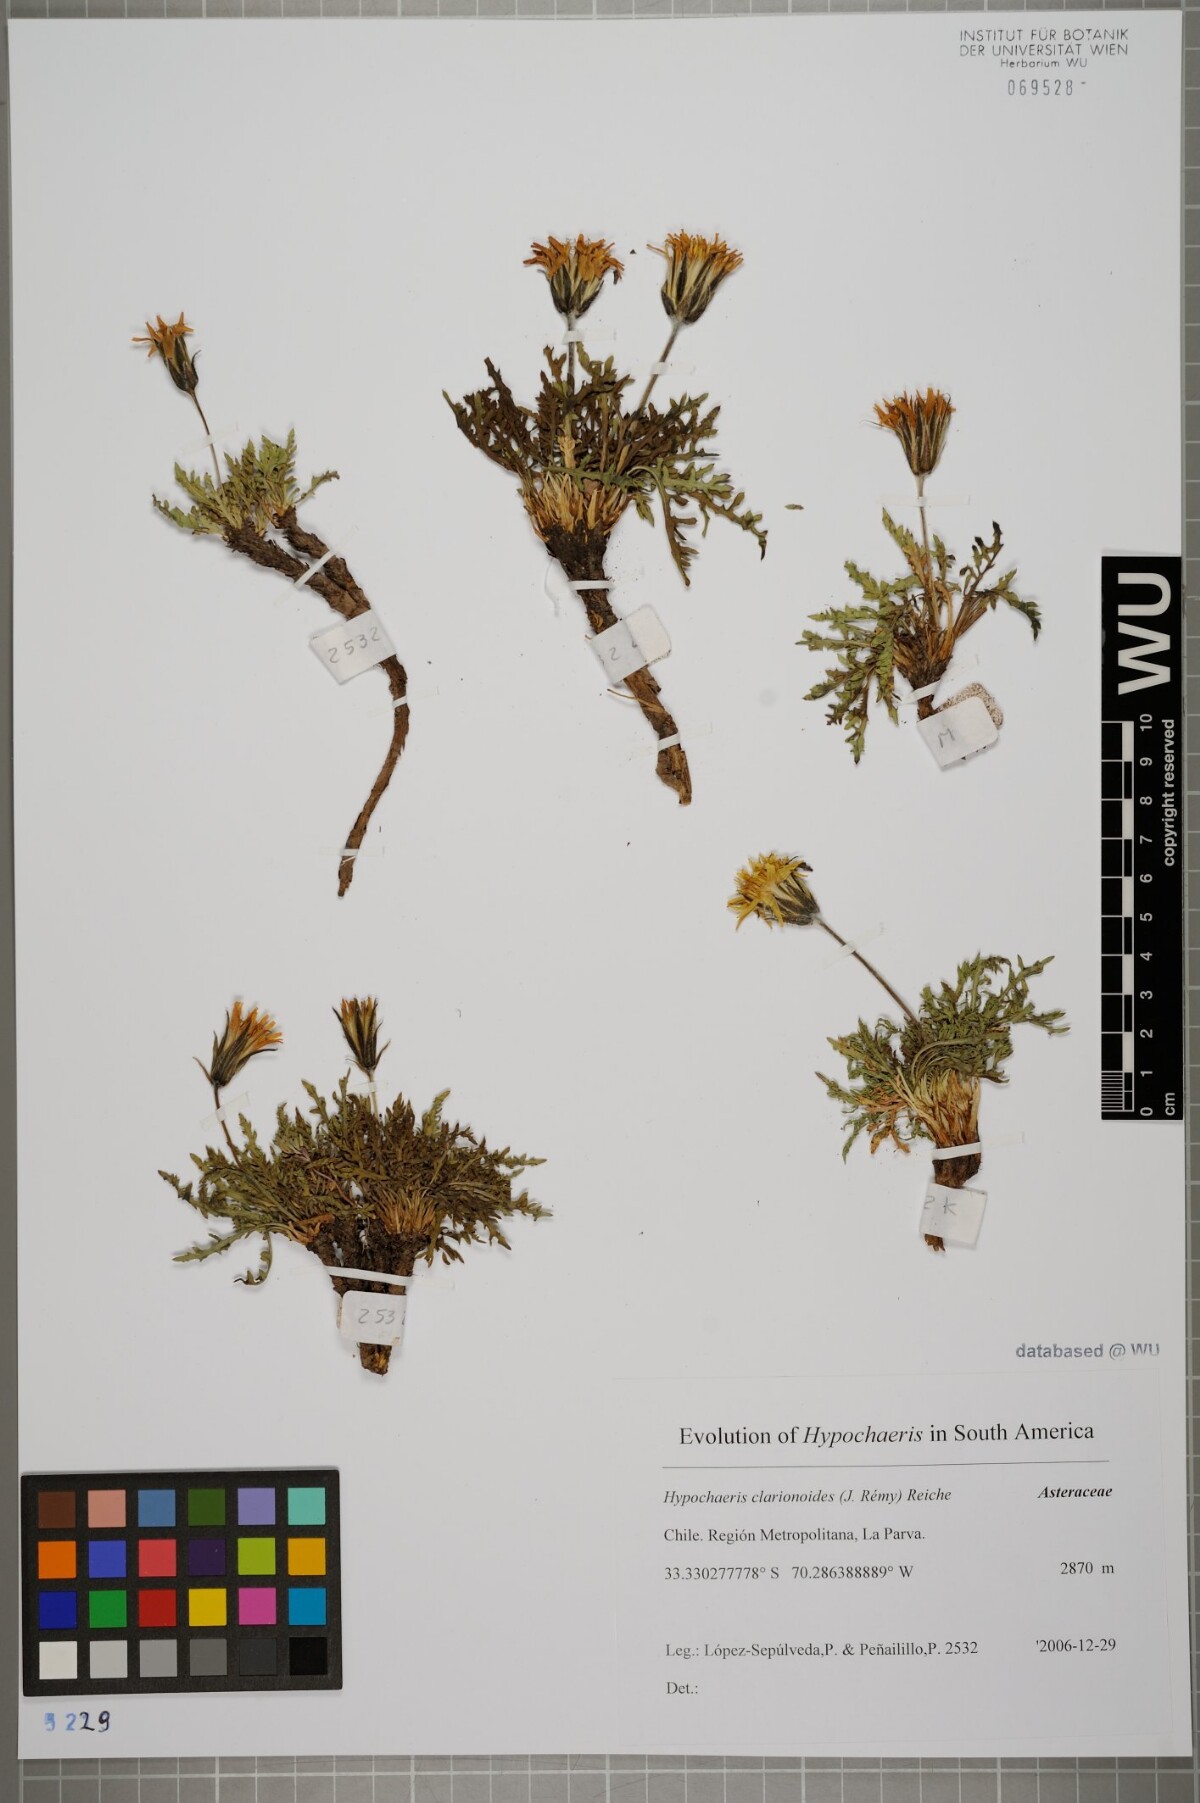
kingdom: Plantae
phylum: Tracheophyta
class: Magnoliopsida
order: Asterales
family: Asteraceae
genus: Hypochaeris
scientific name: Hypochaeris clarionoides
